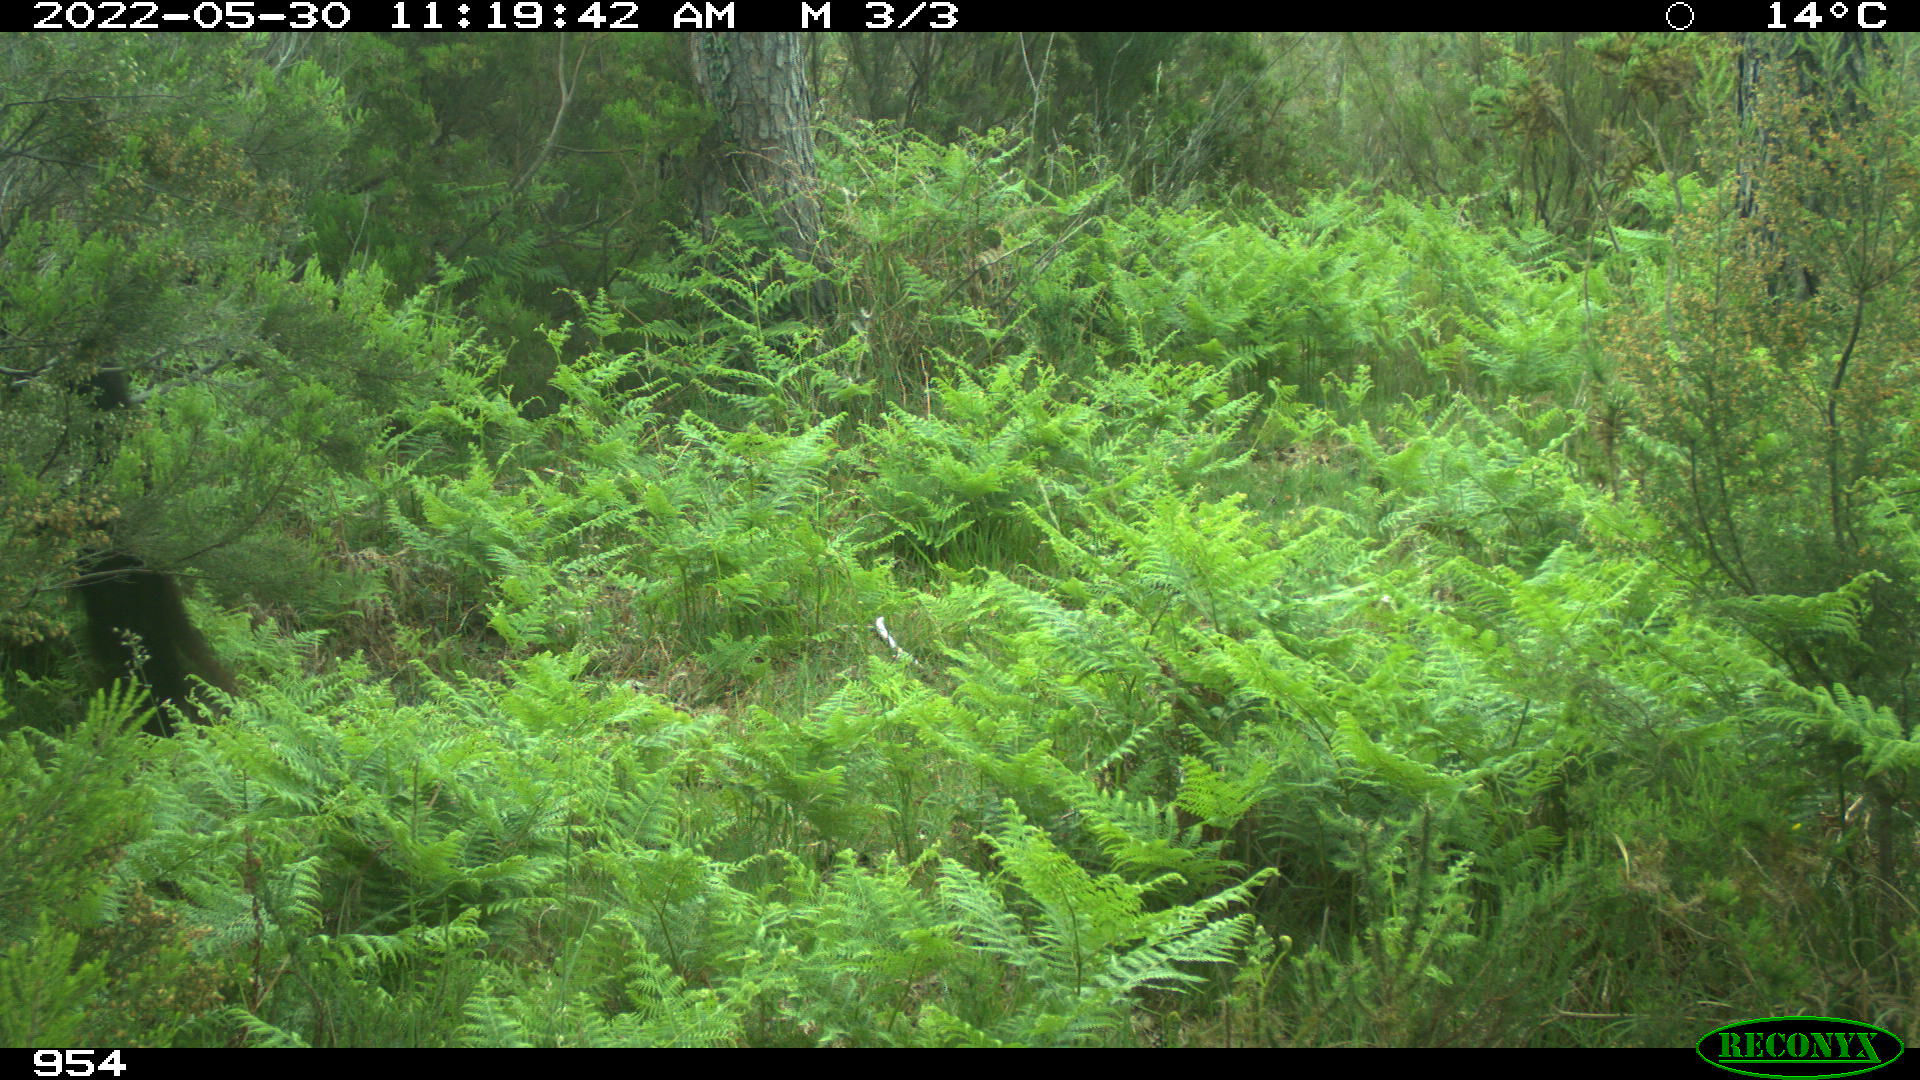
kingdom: Animalia
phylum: Chordata
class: Mammalia
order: Perissodactyla
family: Equidae
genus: Equus
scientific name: Equus caballus
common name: Horse
